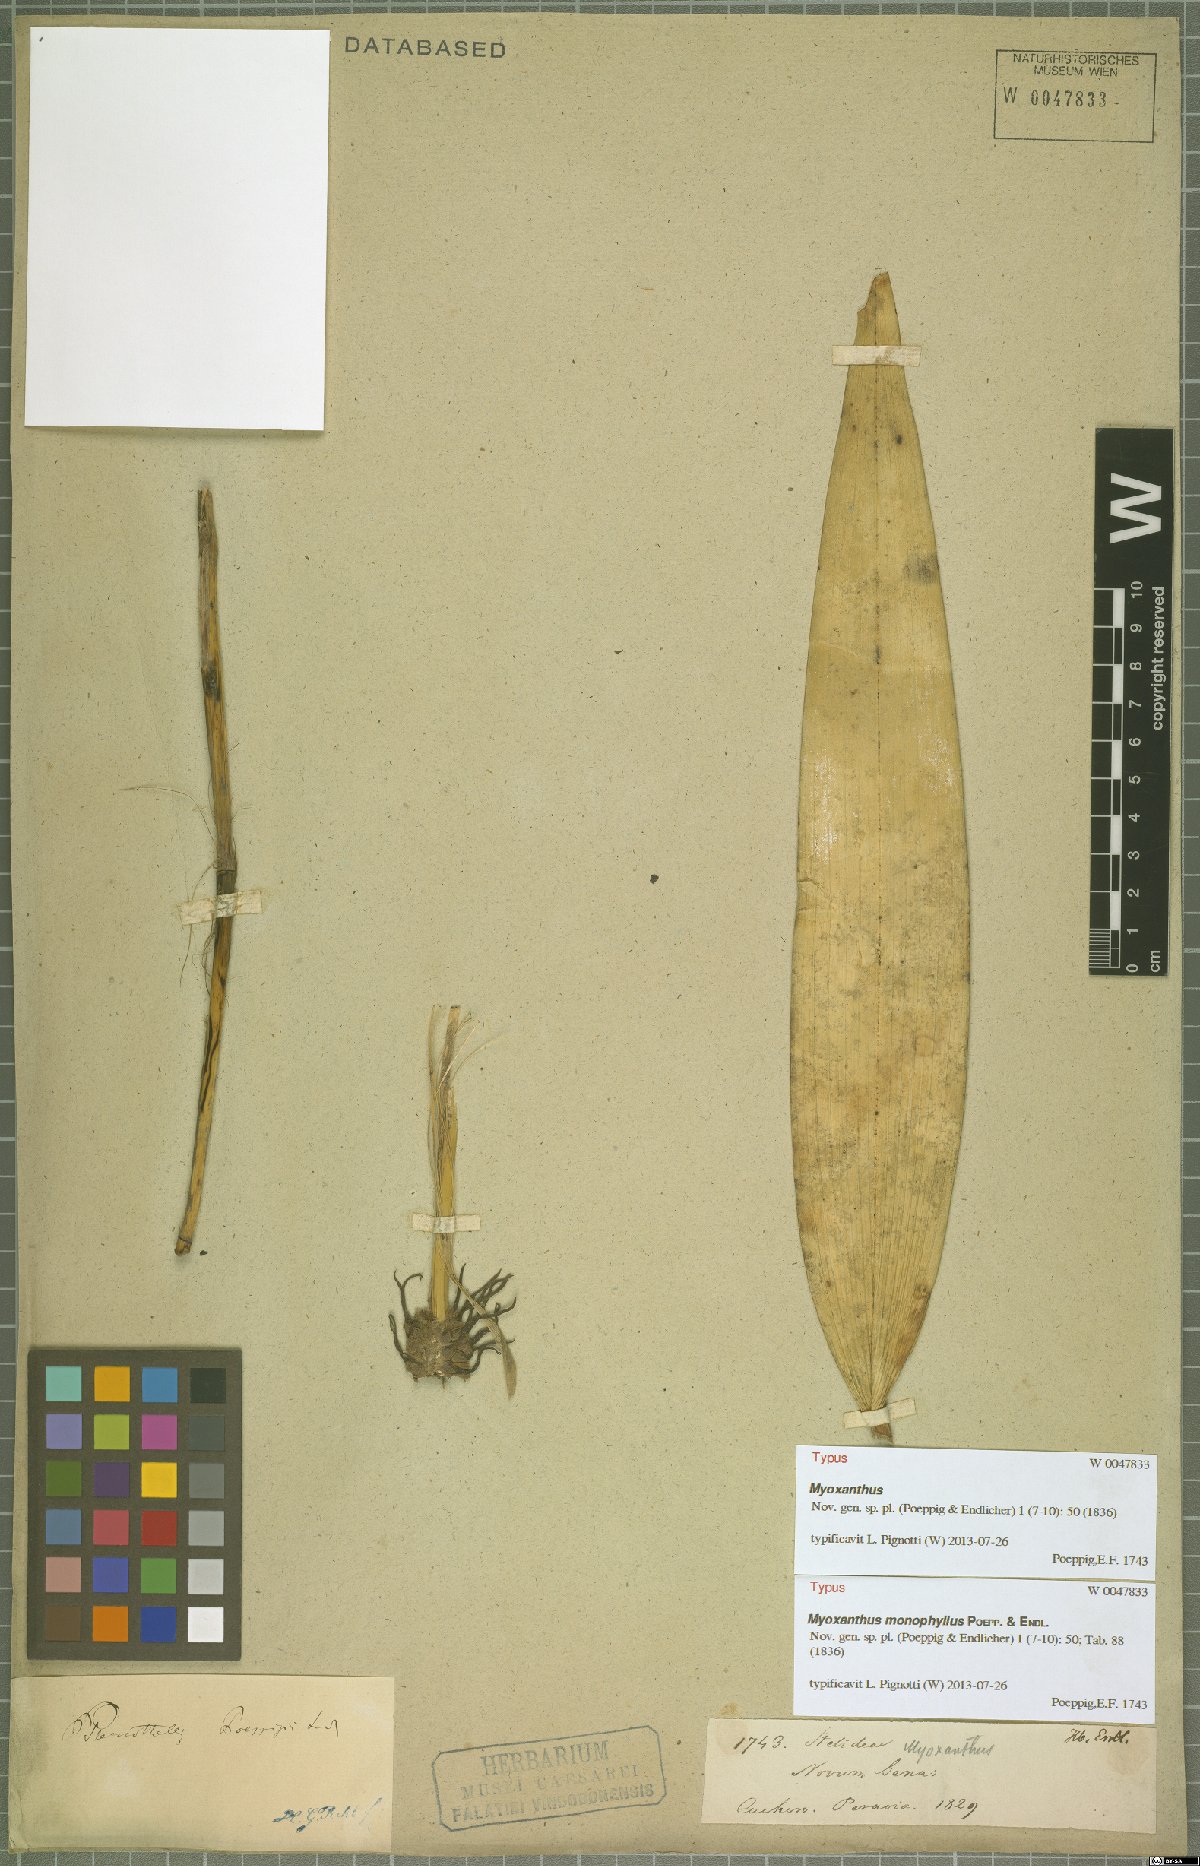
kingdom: Plantae
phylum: Tracheophyta
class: Liliopsida
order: Asparagales
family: Orchidaceae
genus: Myoxanthus
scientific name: Myoxanthus monophyllus
